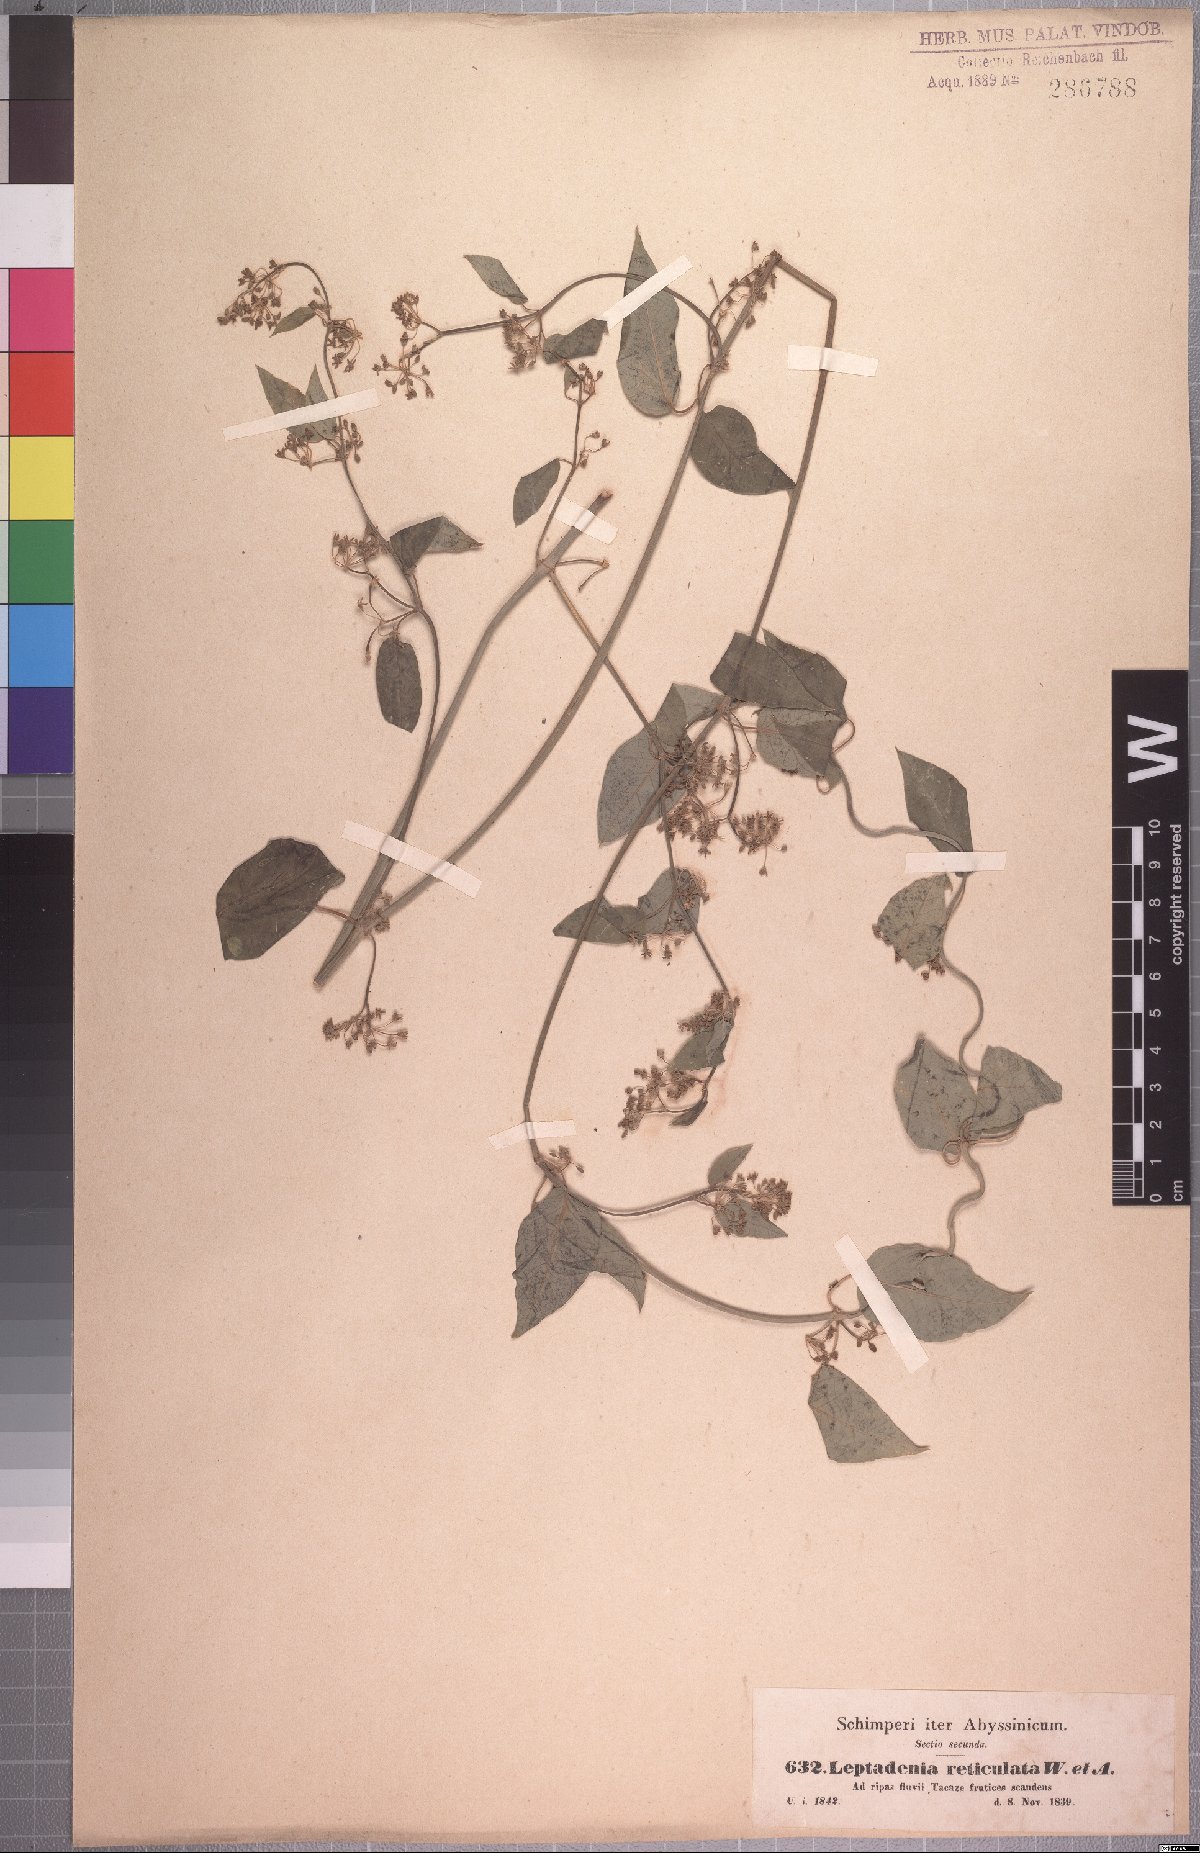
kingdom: Plantae
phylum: Tracheophyta
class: Magnoliopsida
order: Gentianales
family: Apocynaceae
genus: Leptadenia
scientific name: Leptadenia arborea
